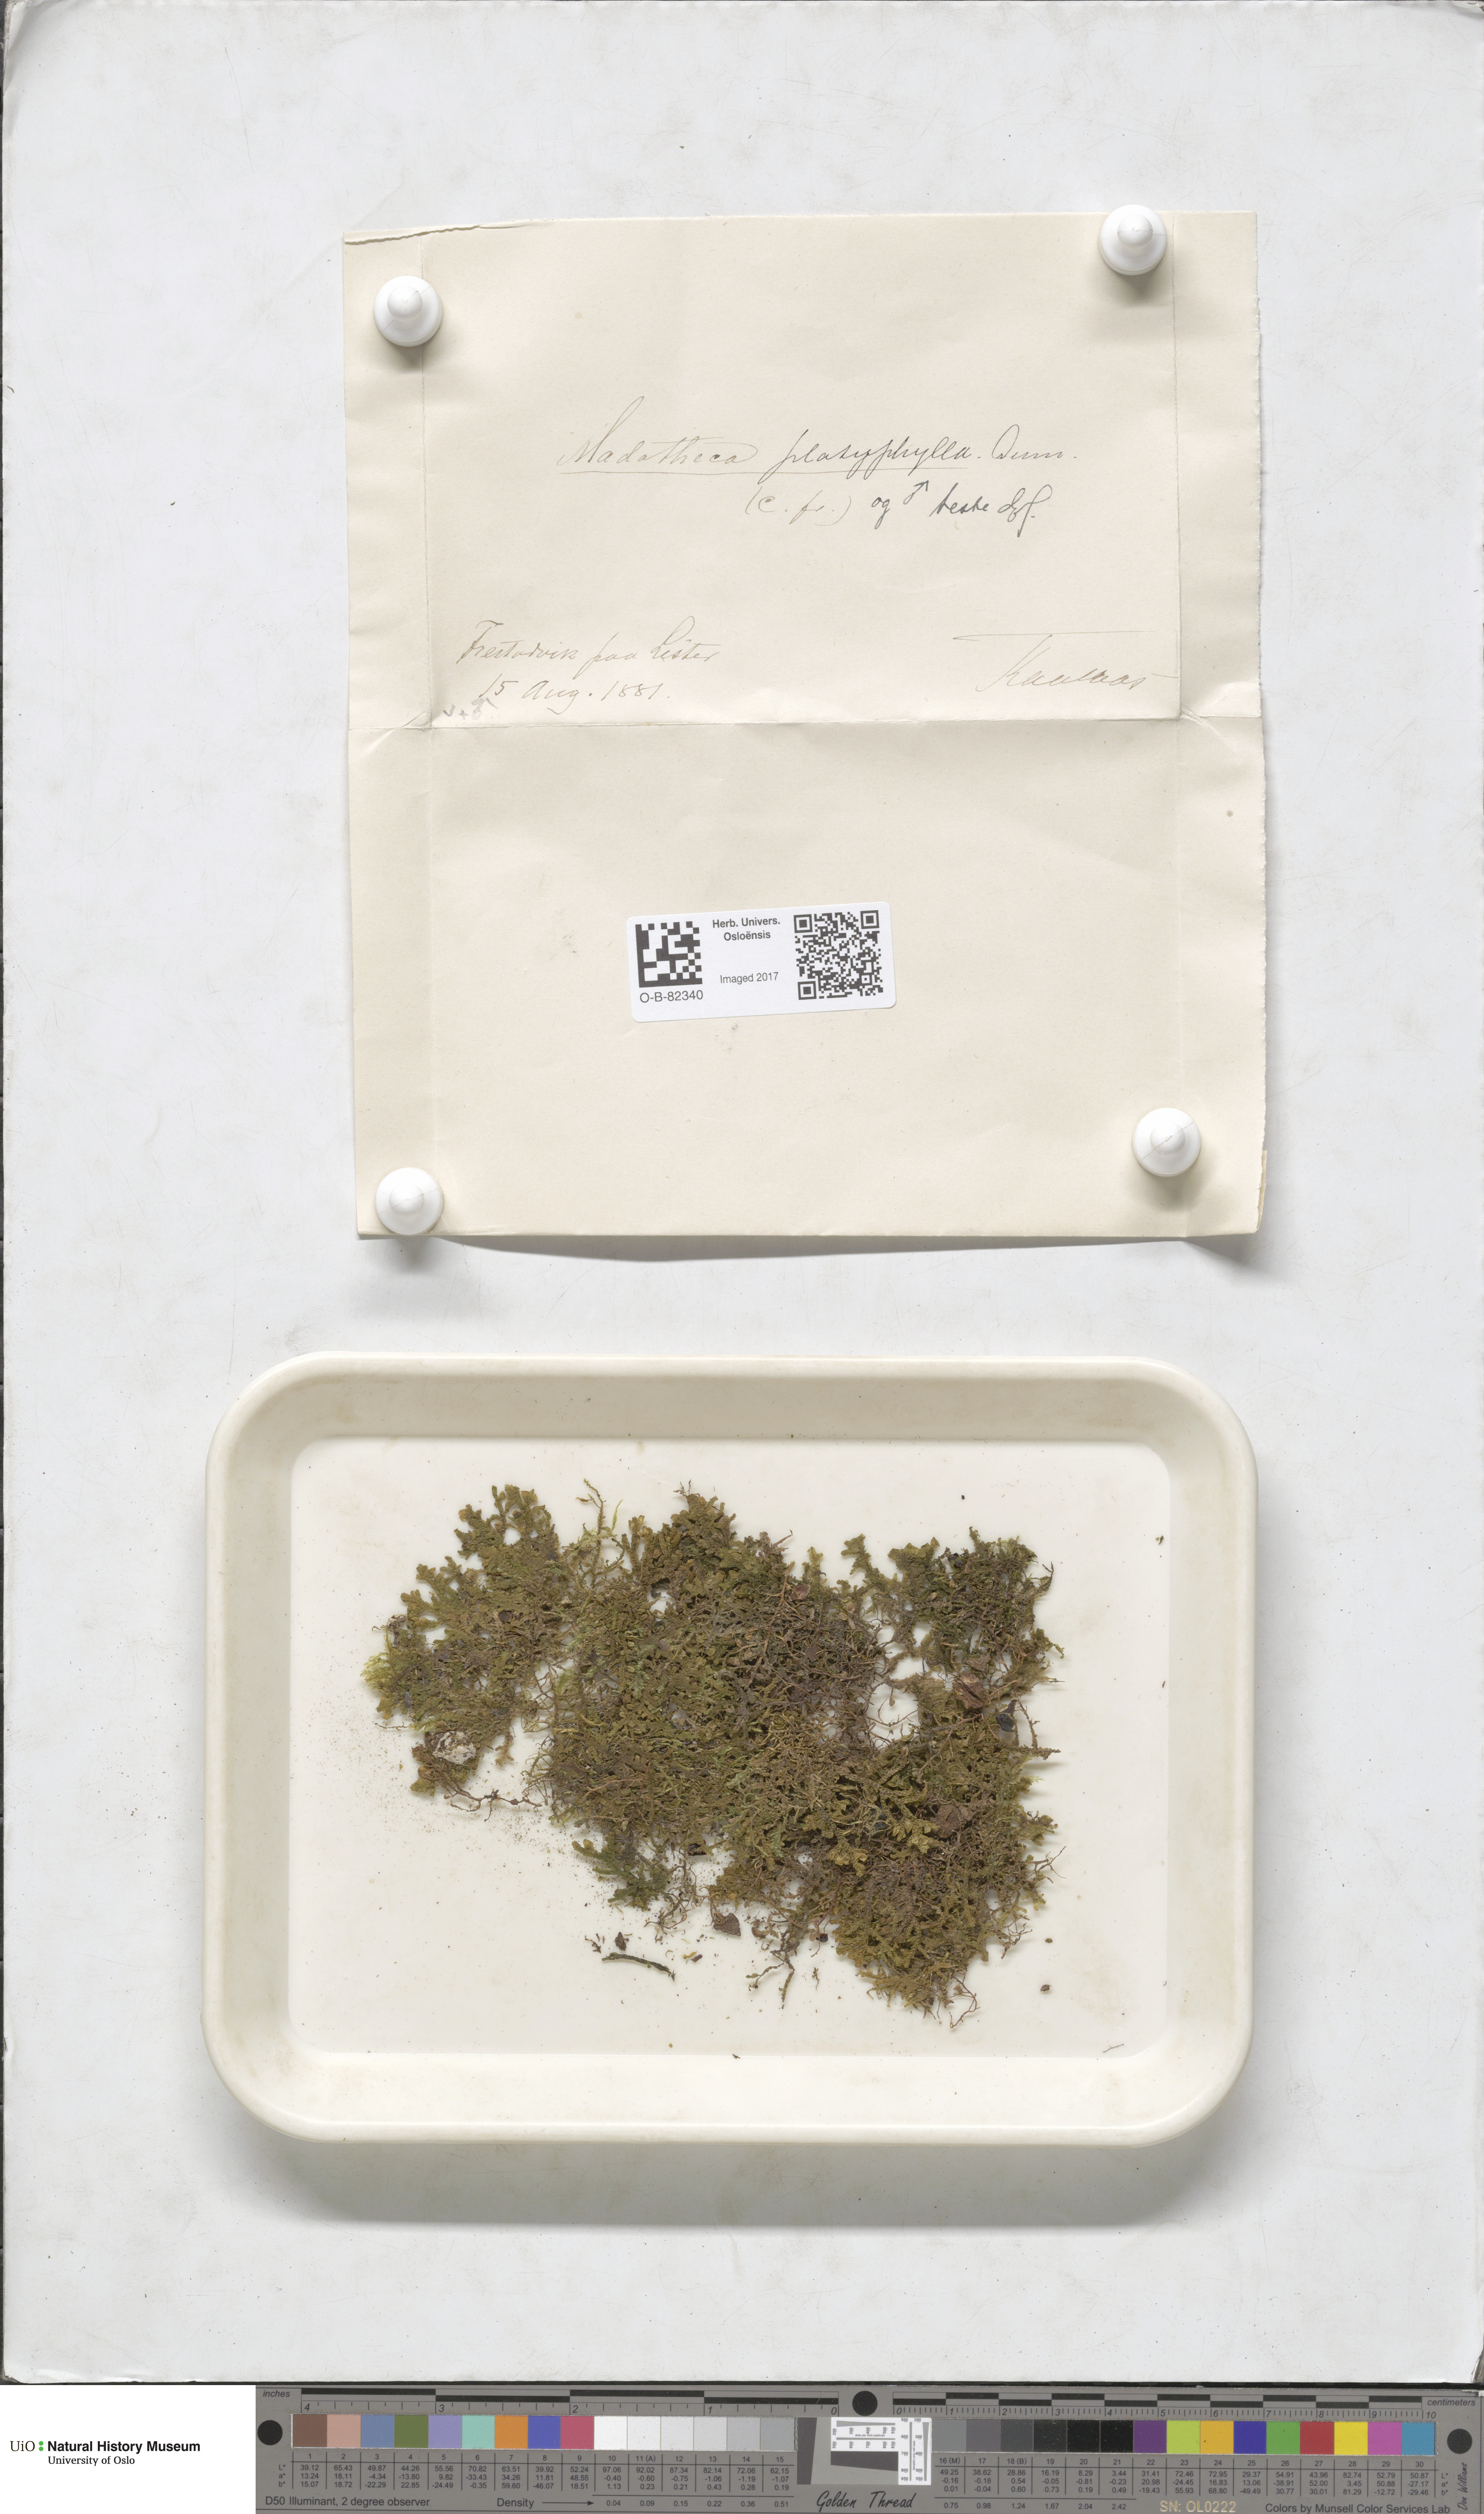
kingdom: Plantae
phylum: Marchantiophyta
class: Jungermanniopsida
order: Porellales
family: Porellaceae
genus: Porella
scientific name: Porella platyphylla
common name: Wall scalewort
